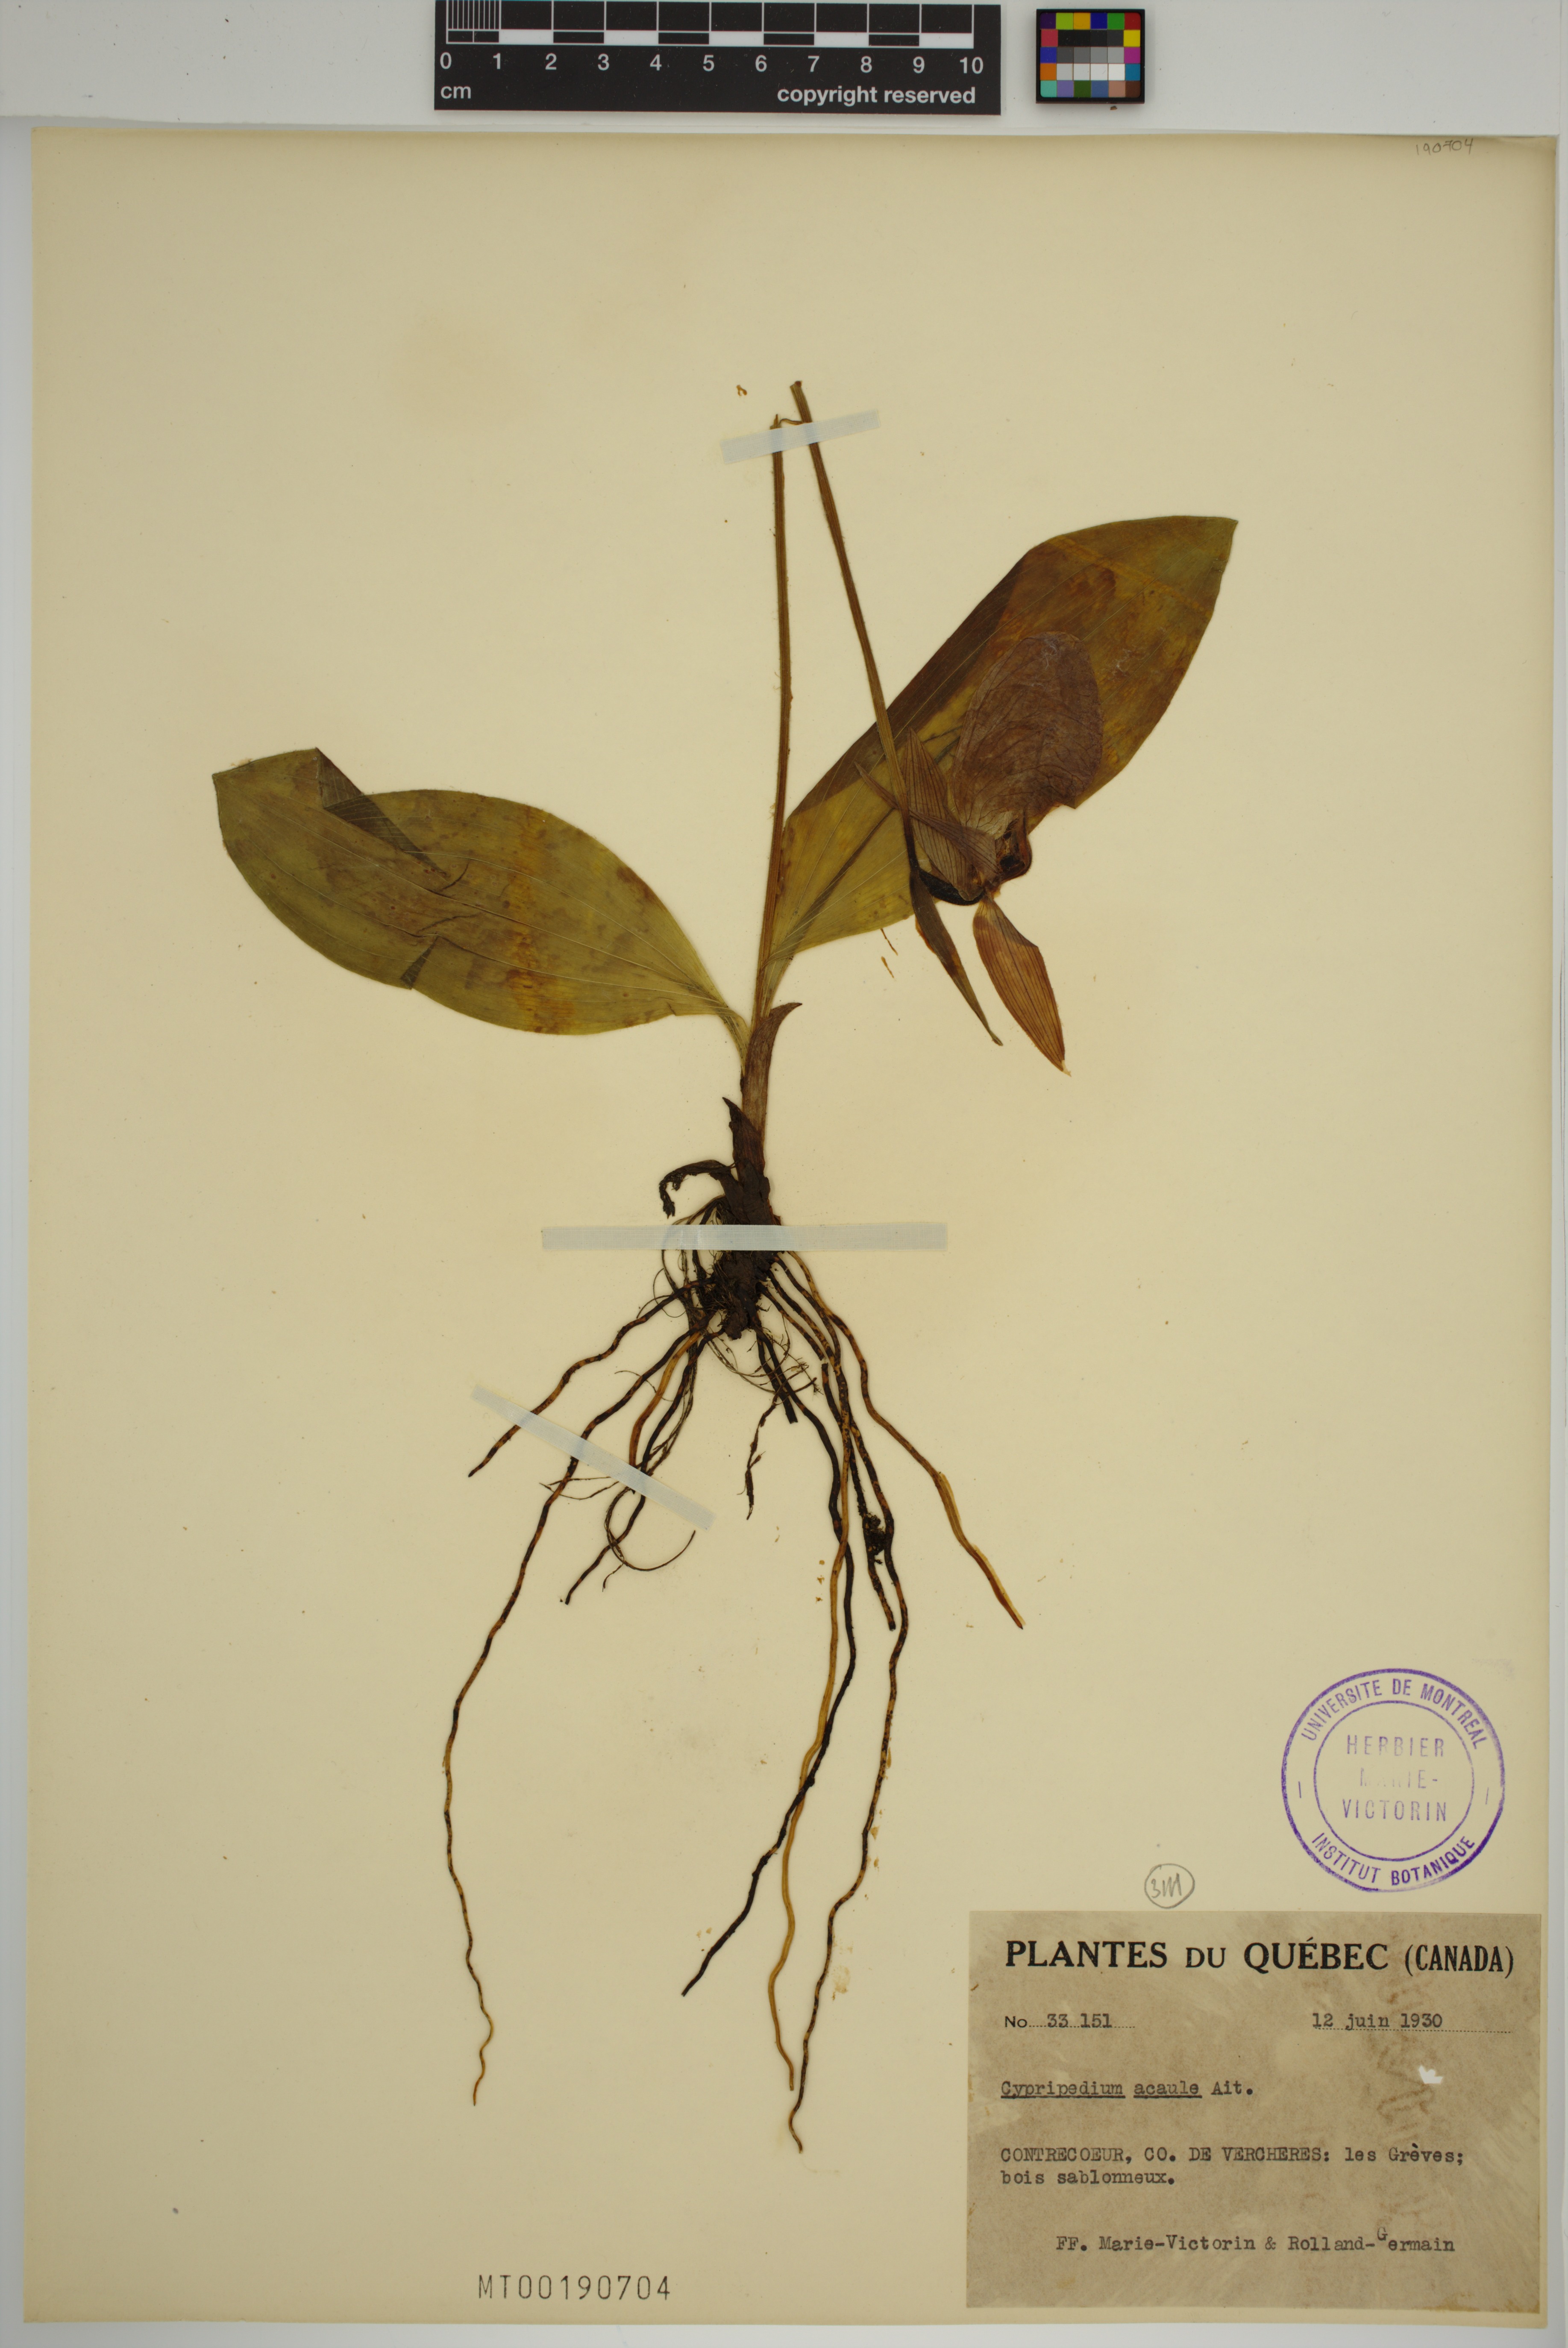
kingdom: Plantae
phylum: Tracheophyta
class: Liliopsida
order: Asparagales
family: Orchidaceae
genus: Cypripedium
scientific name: Cypripedium acaule
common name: Pink lady's-slipper
